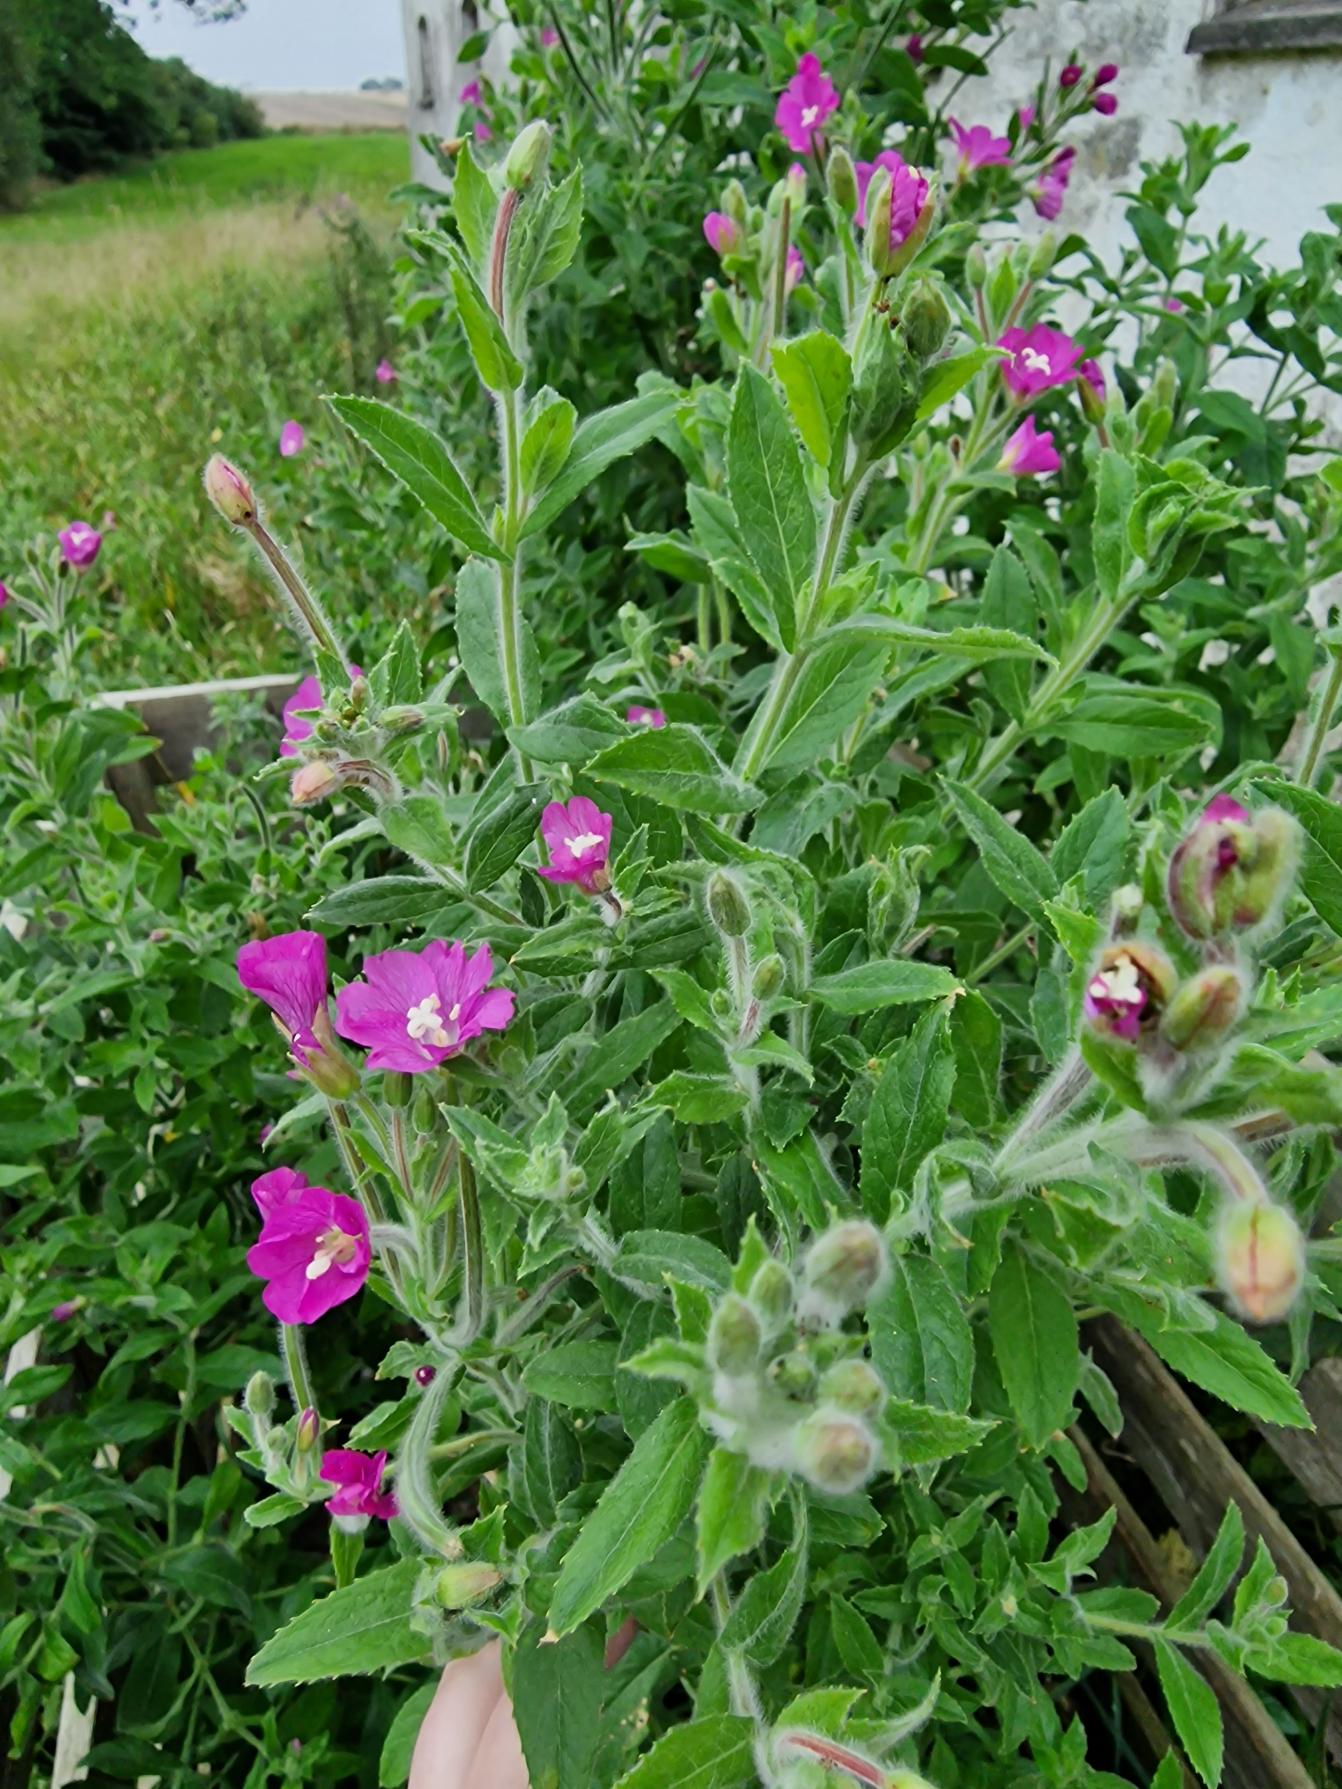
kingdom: Plantae
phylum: Tracheophyta
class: Magnoliopsida
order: Myrtales
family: Onagraceae
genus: Epilobium
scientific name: Epilobium hirsutum
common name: Lådden dueurt
